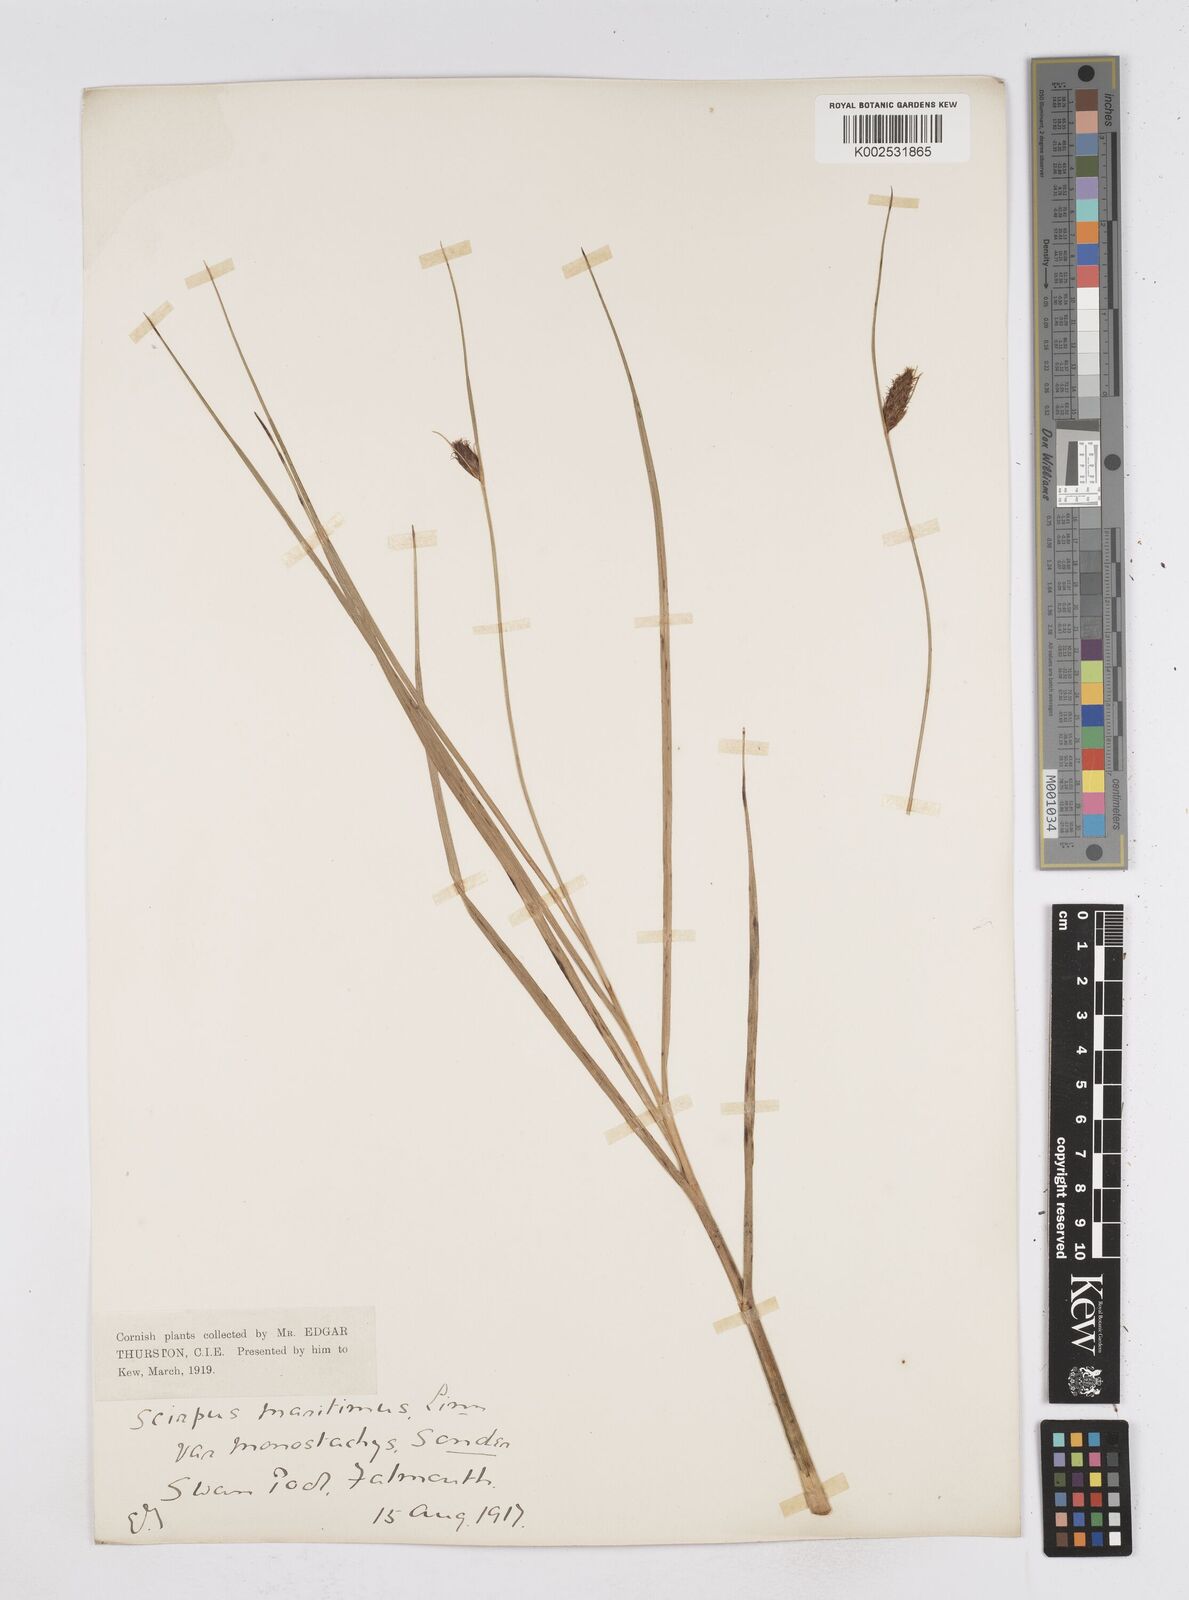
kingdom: Plantae
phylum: Tracheophyta
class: Liliopsida
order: Poales
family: Cyperaceae
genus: Bolboschoenus
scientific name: Bolboschoenus maritimus
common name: Sea club-rush
